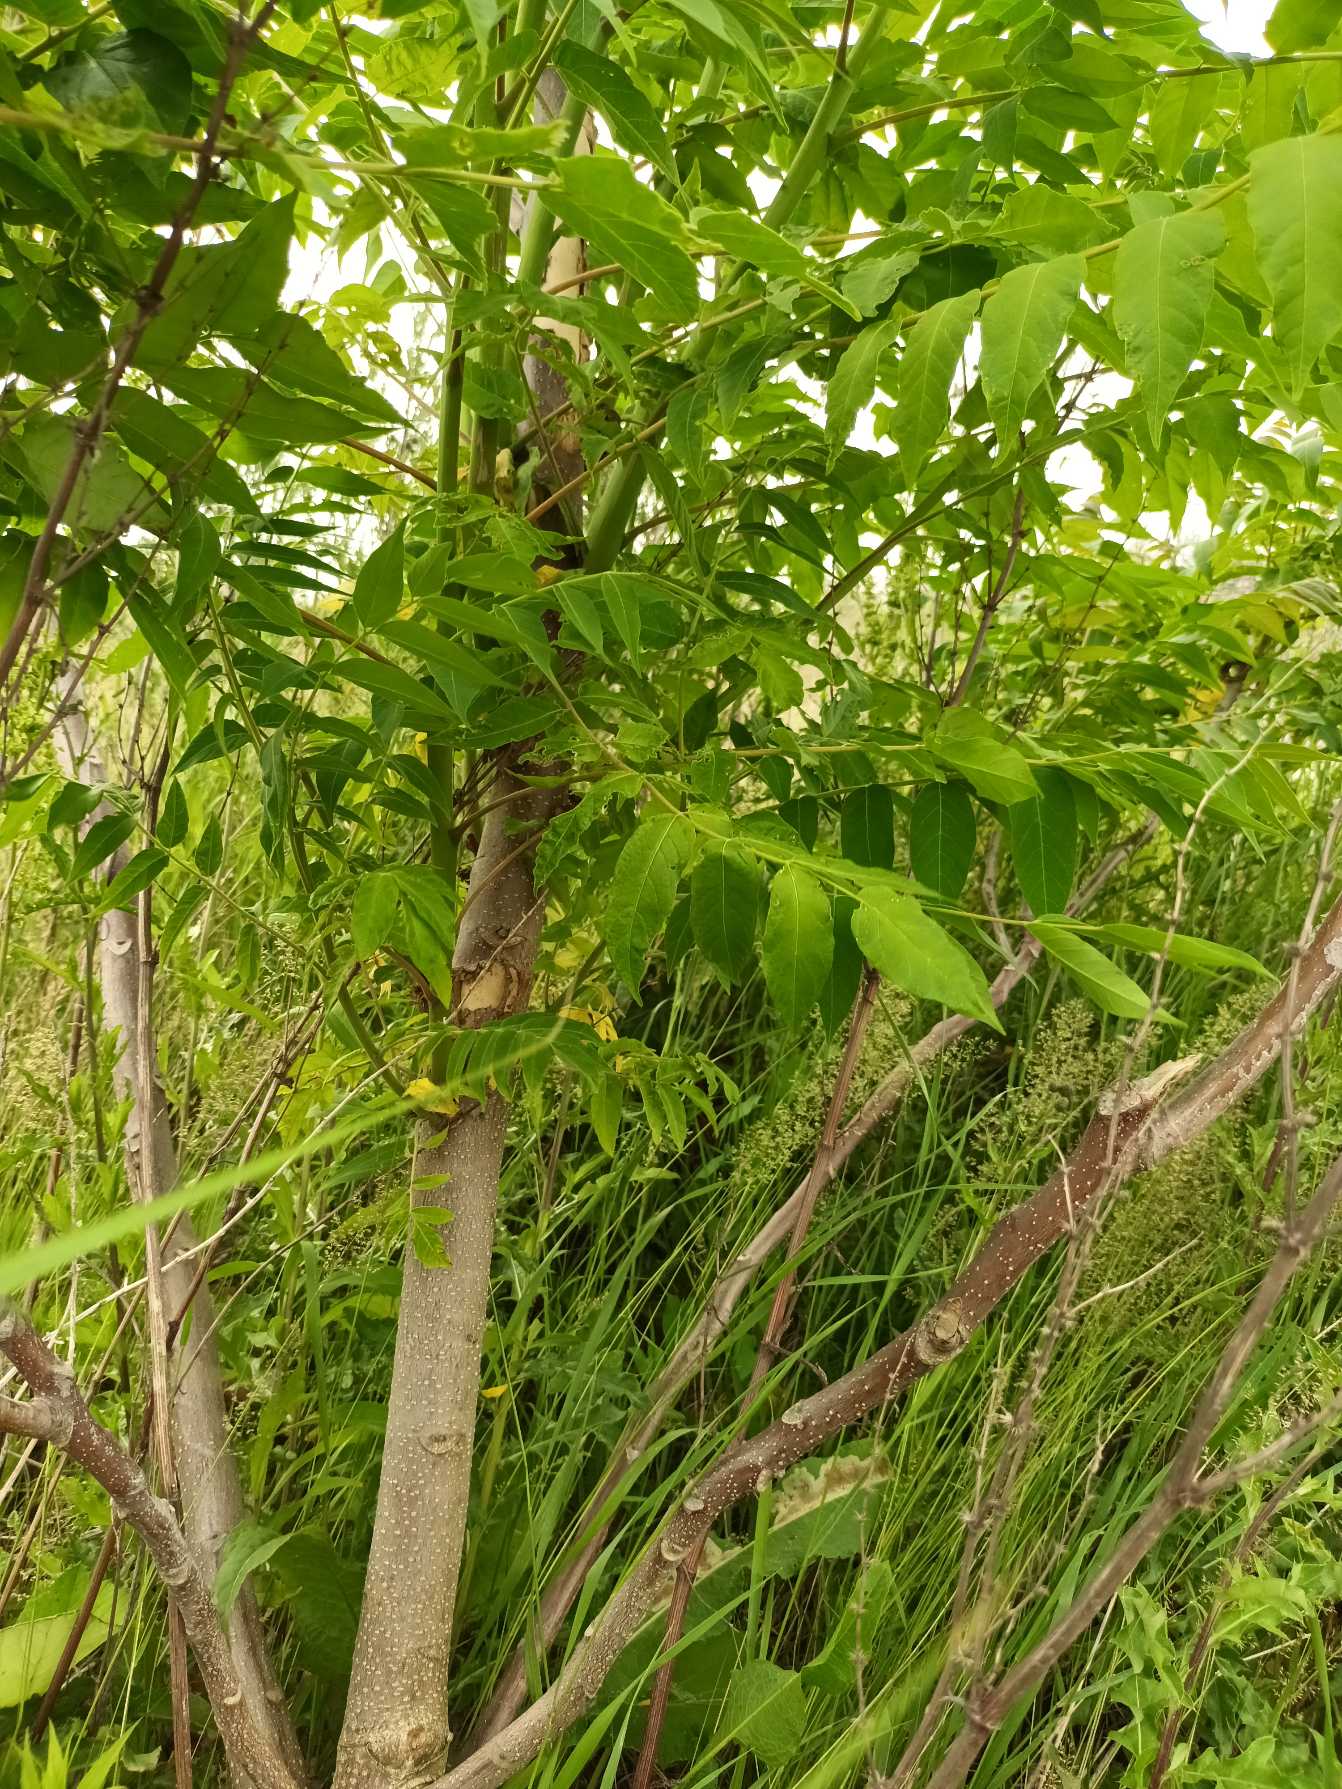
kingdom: Plantae
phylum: Tracheophyta
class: Magnoliopsida
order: Sapindales
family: Simaroubaceae
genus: Ailanthus
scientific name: Ailanthus altissima
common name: Skyrækker
